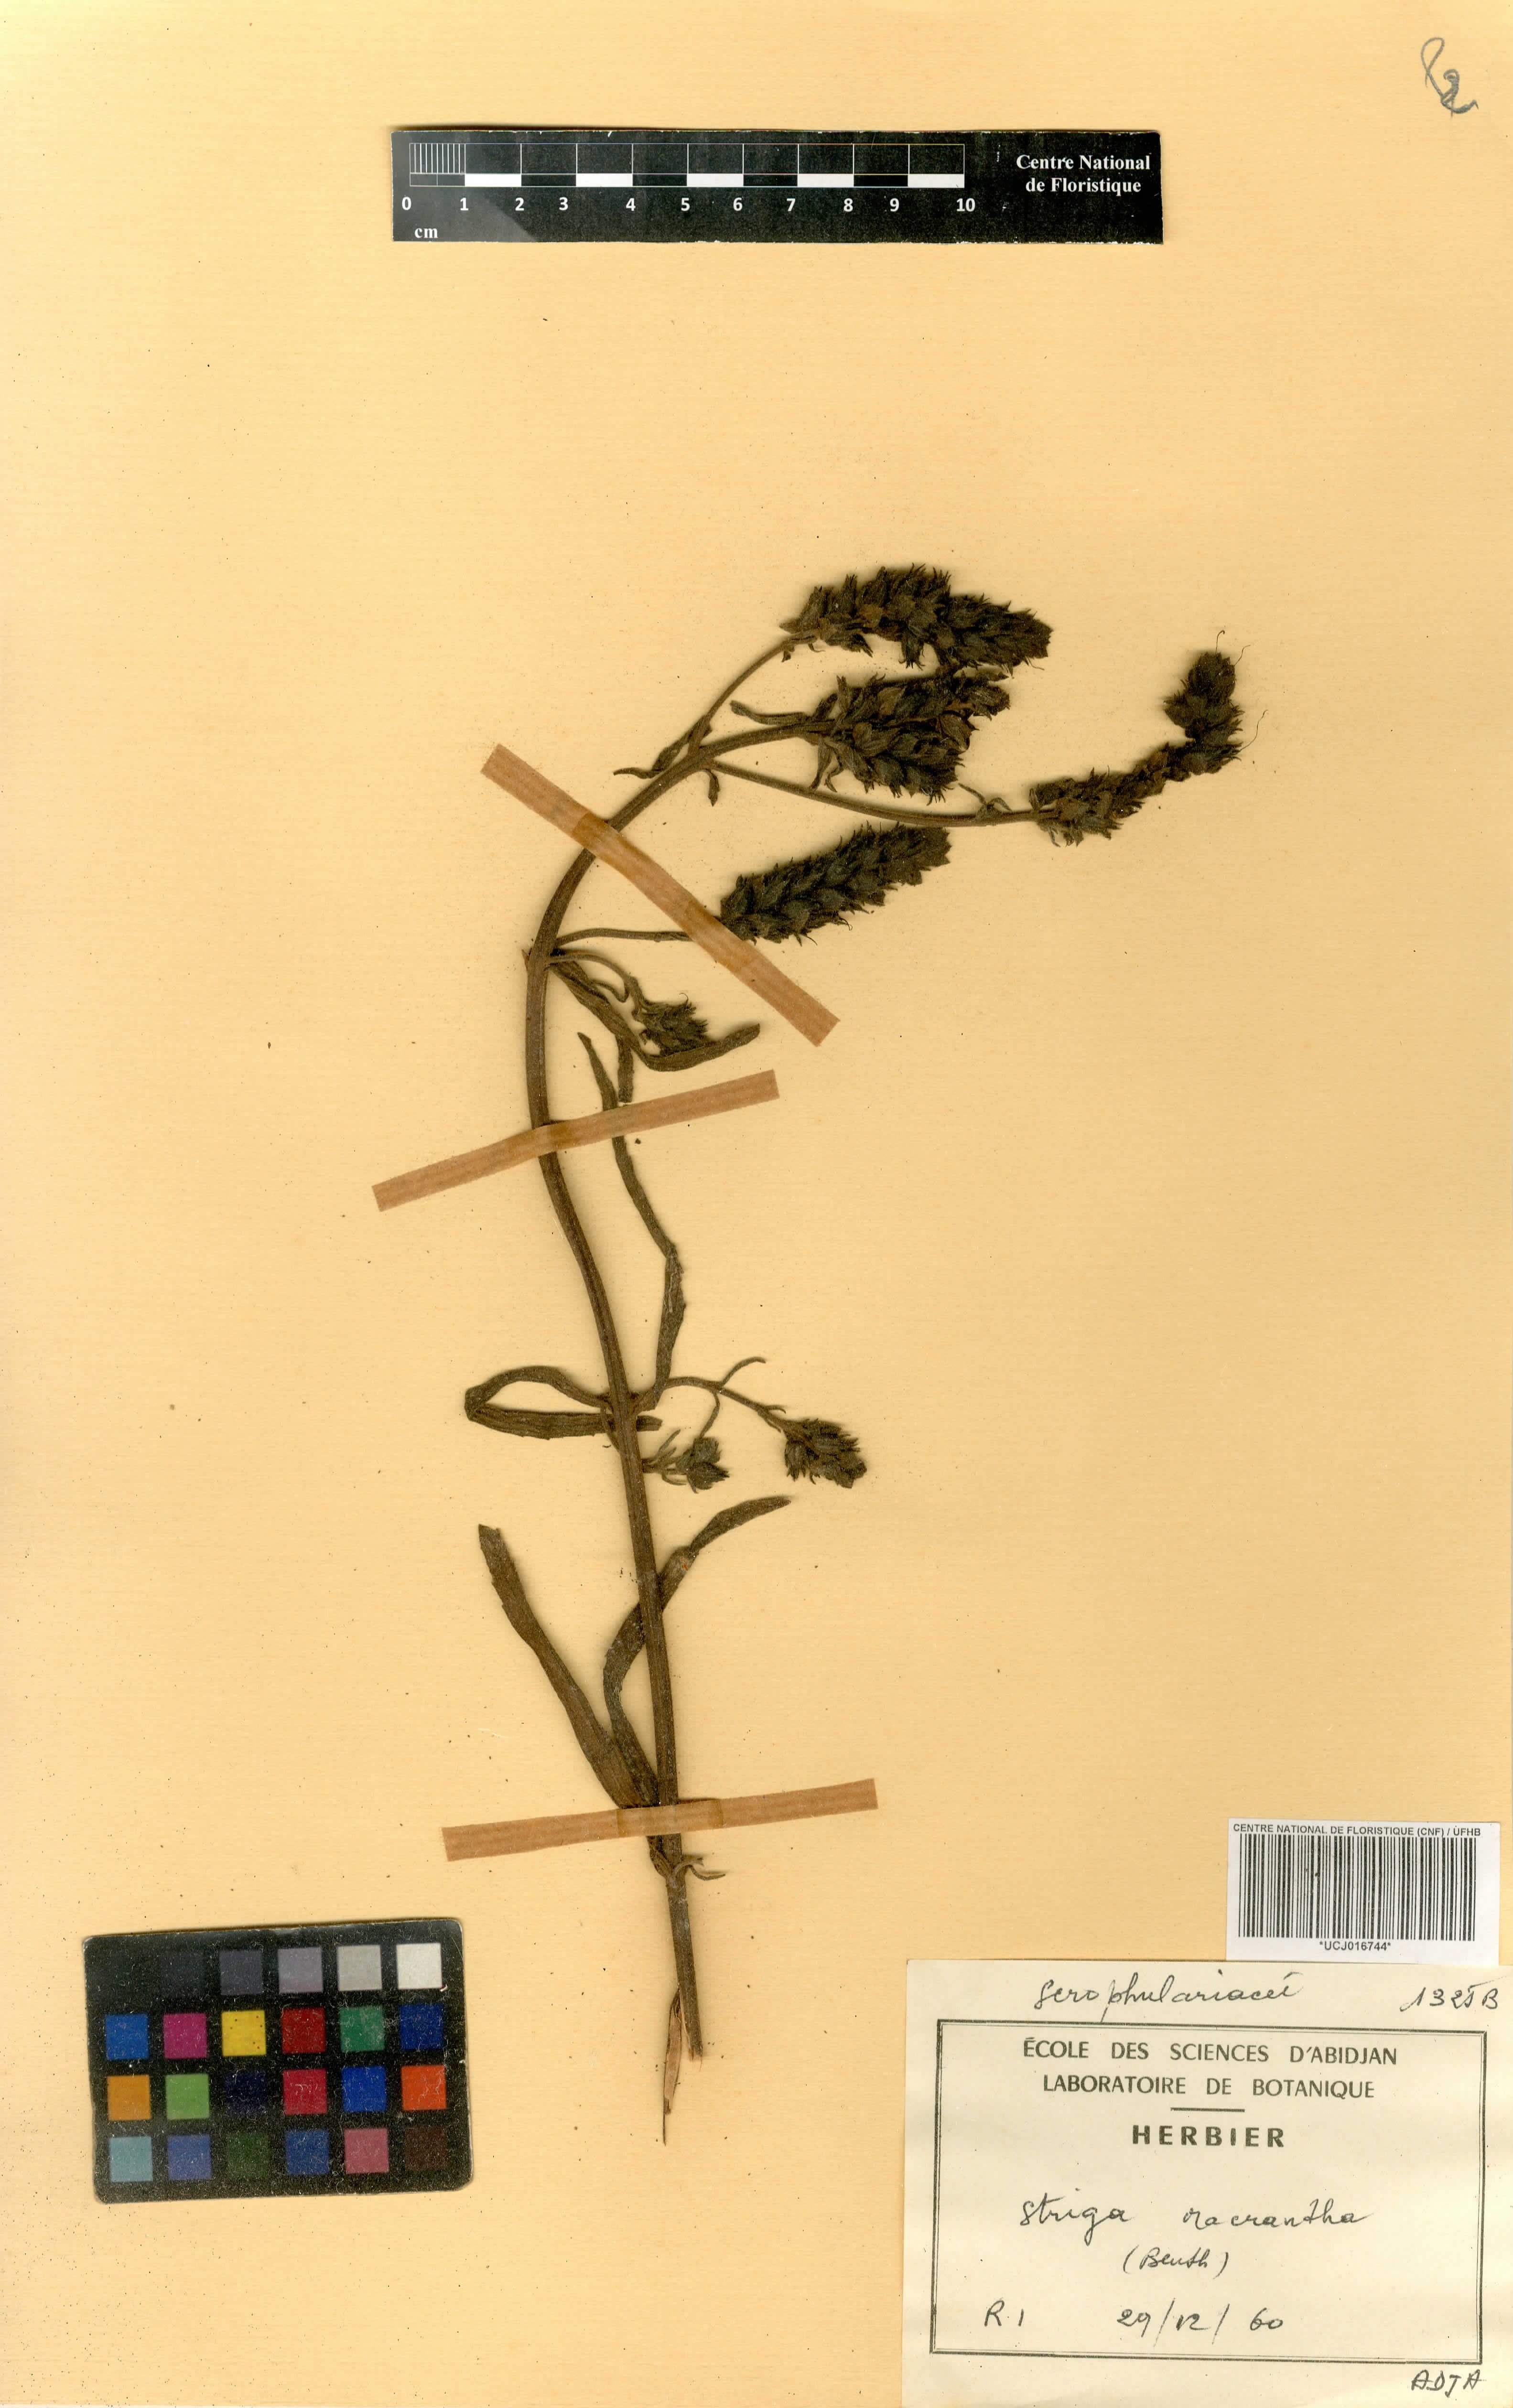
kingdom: Plantae
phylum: Tracheophyta
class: Magnoliopsida
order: Lamiales
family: Orobanchaceae
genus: Striga
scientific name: Striga macrantha
